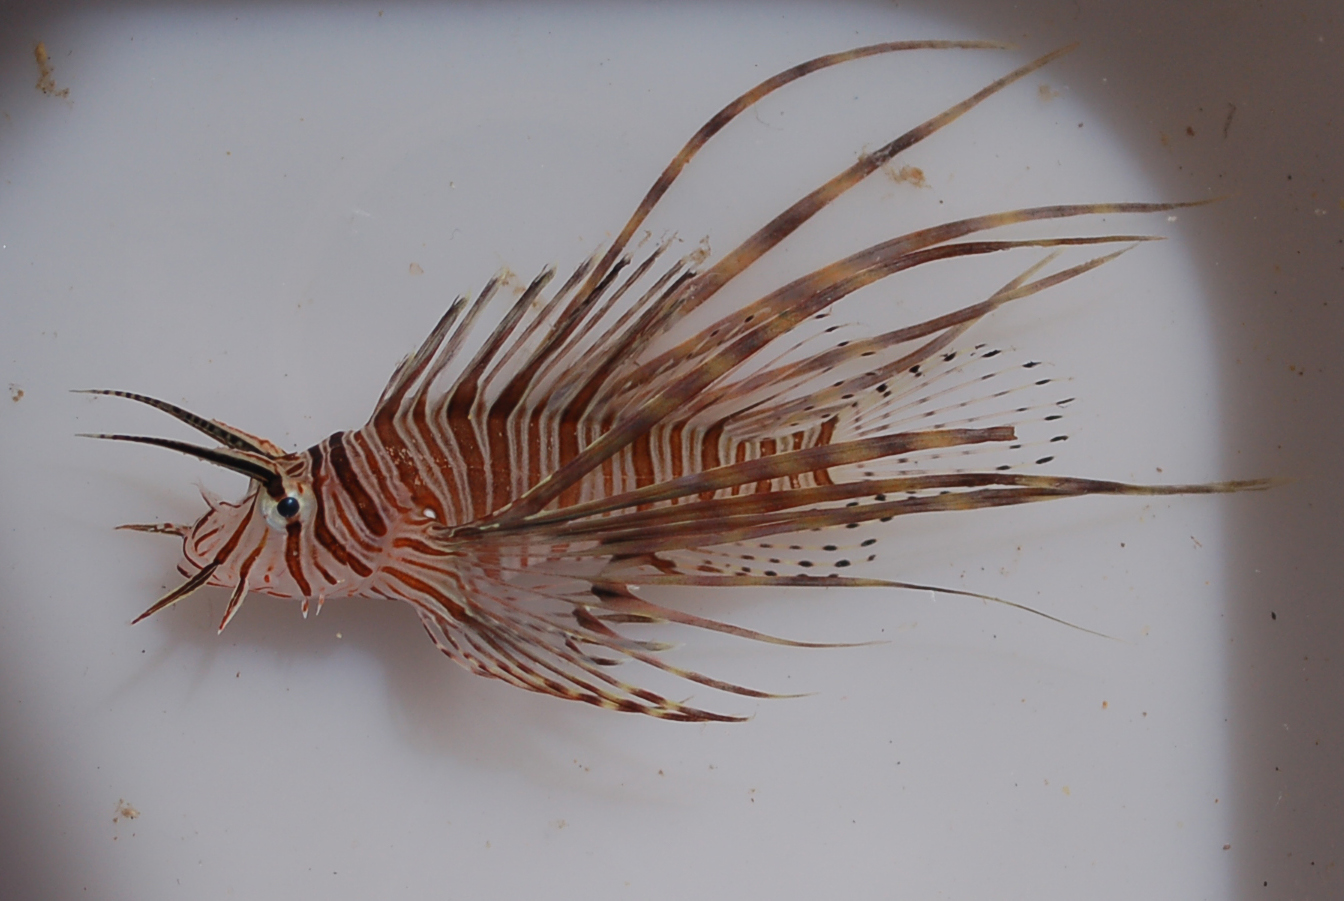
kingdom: Animalia
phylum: Chordata
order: Scorpaeniformes
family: Scorpaenidae
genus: Pterois
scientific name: Pterois miles
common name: Devil firefish
